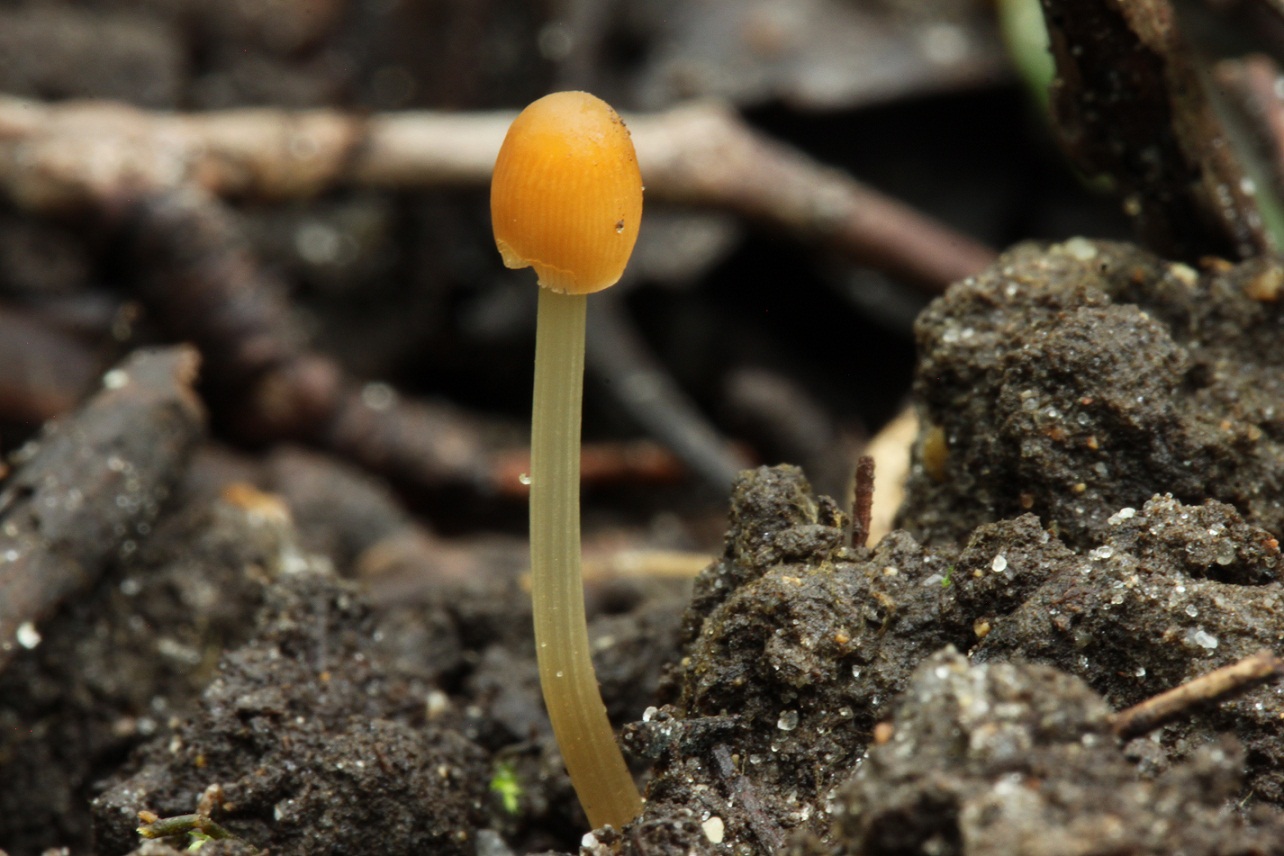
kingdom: Fungi
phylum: Basidiomycota
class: Agaricomycetes
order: Agaricales
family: Psathyrellaceae
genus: Parasola
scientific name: Parasola lactea
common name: glat hjulhat
